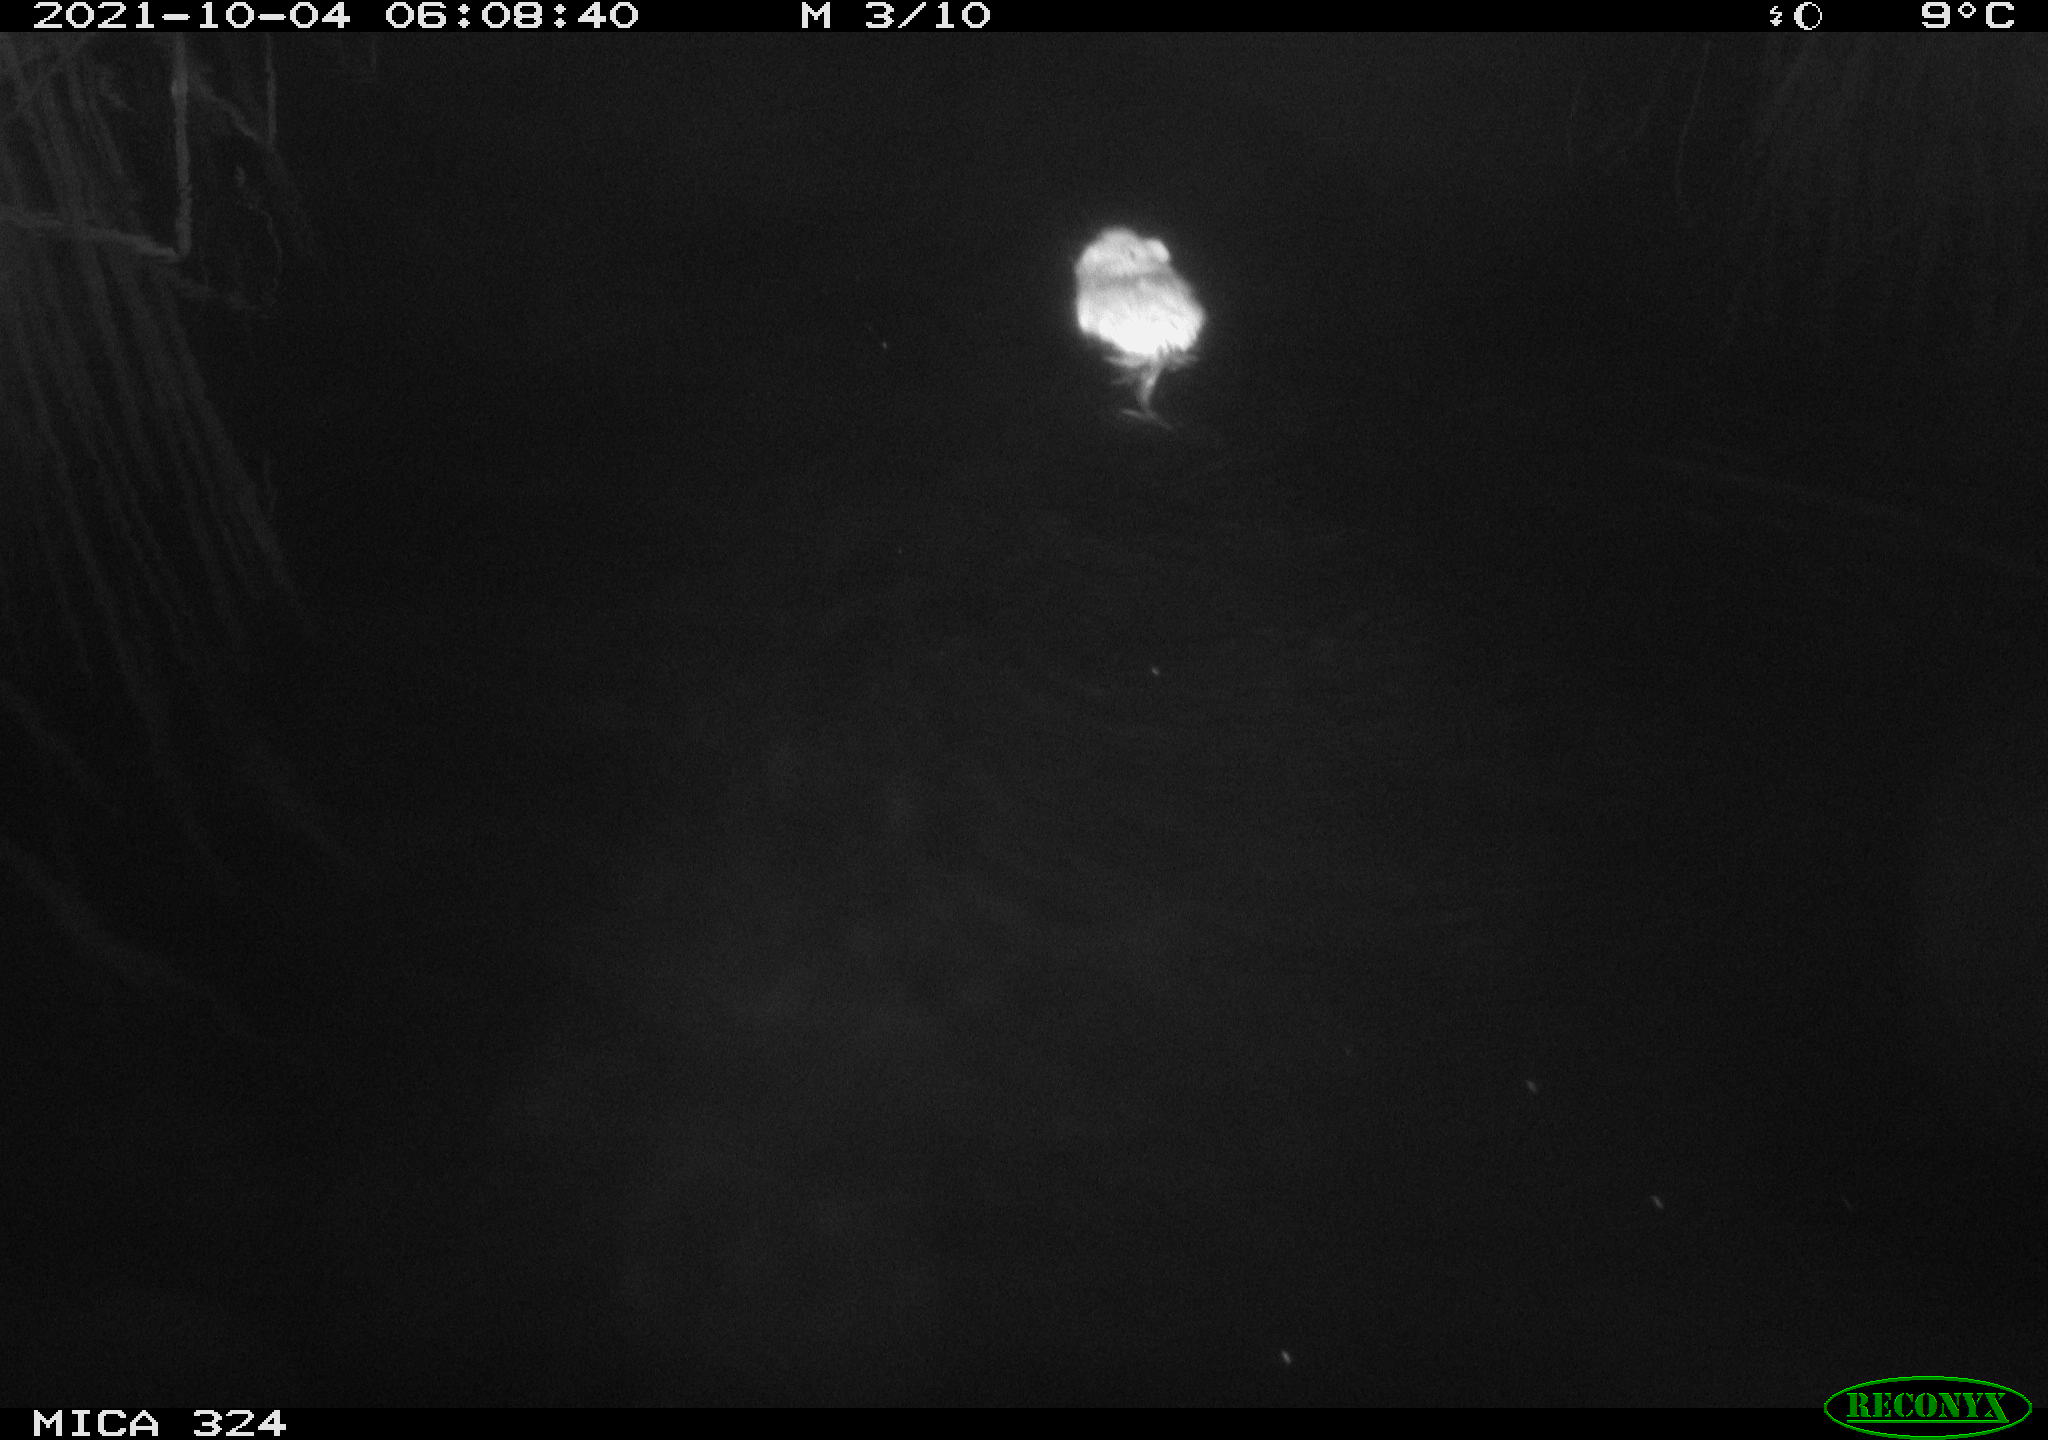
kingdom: Animalia
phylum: Chordata
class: Mammalia
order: Rodentia
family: Cricetidae
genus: Ondatra
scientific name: Ondatra zibethicus
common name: Muskrat
